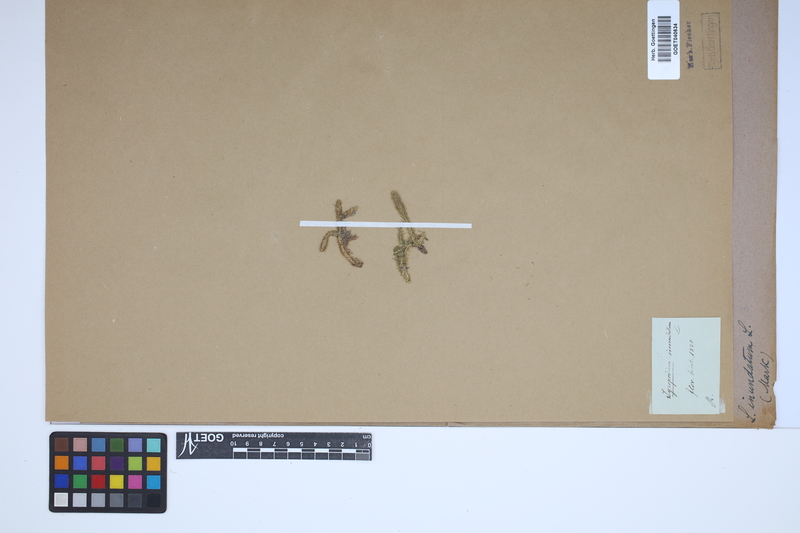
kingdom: Plantae
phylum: Tracheophyta
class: Lycopodiopsida
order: Lycopodiales
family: Lycopodiaceae
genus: Lycopodiella
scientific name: Lycopodiella inundata
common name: Marsh clubmoss
